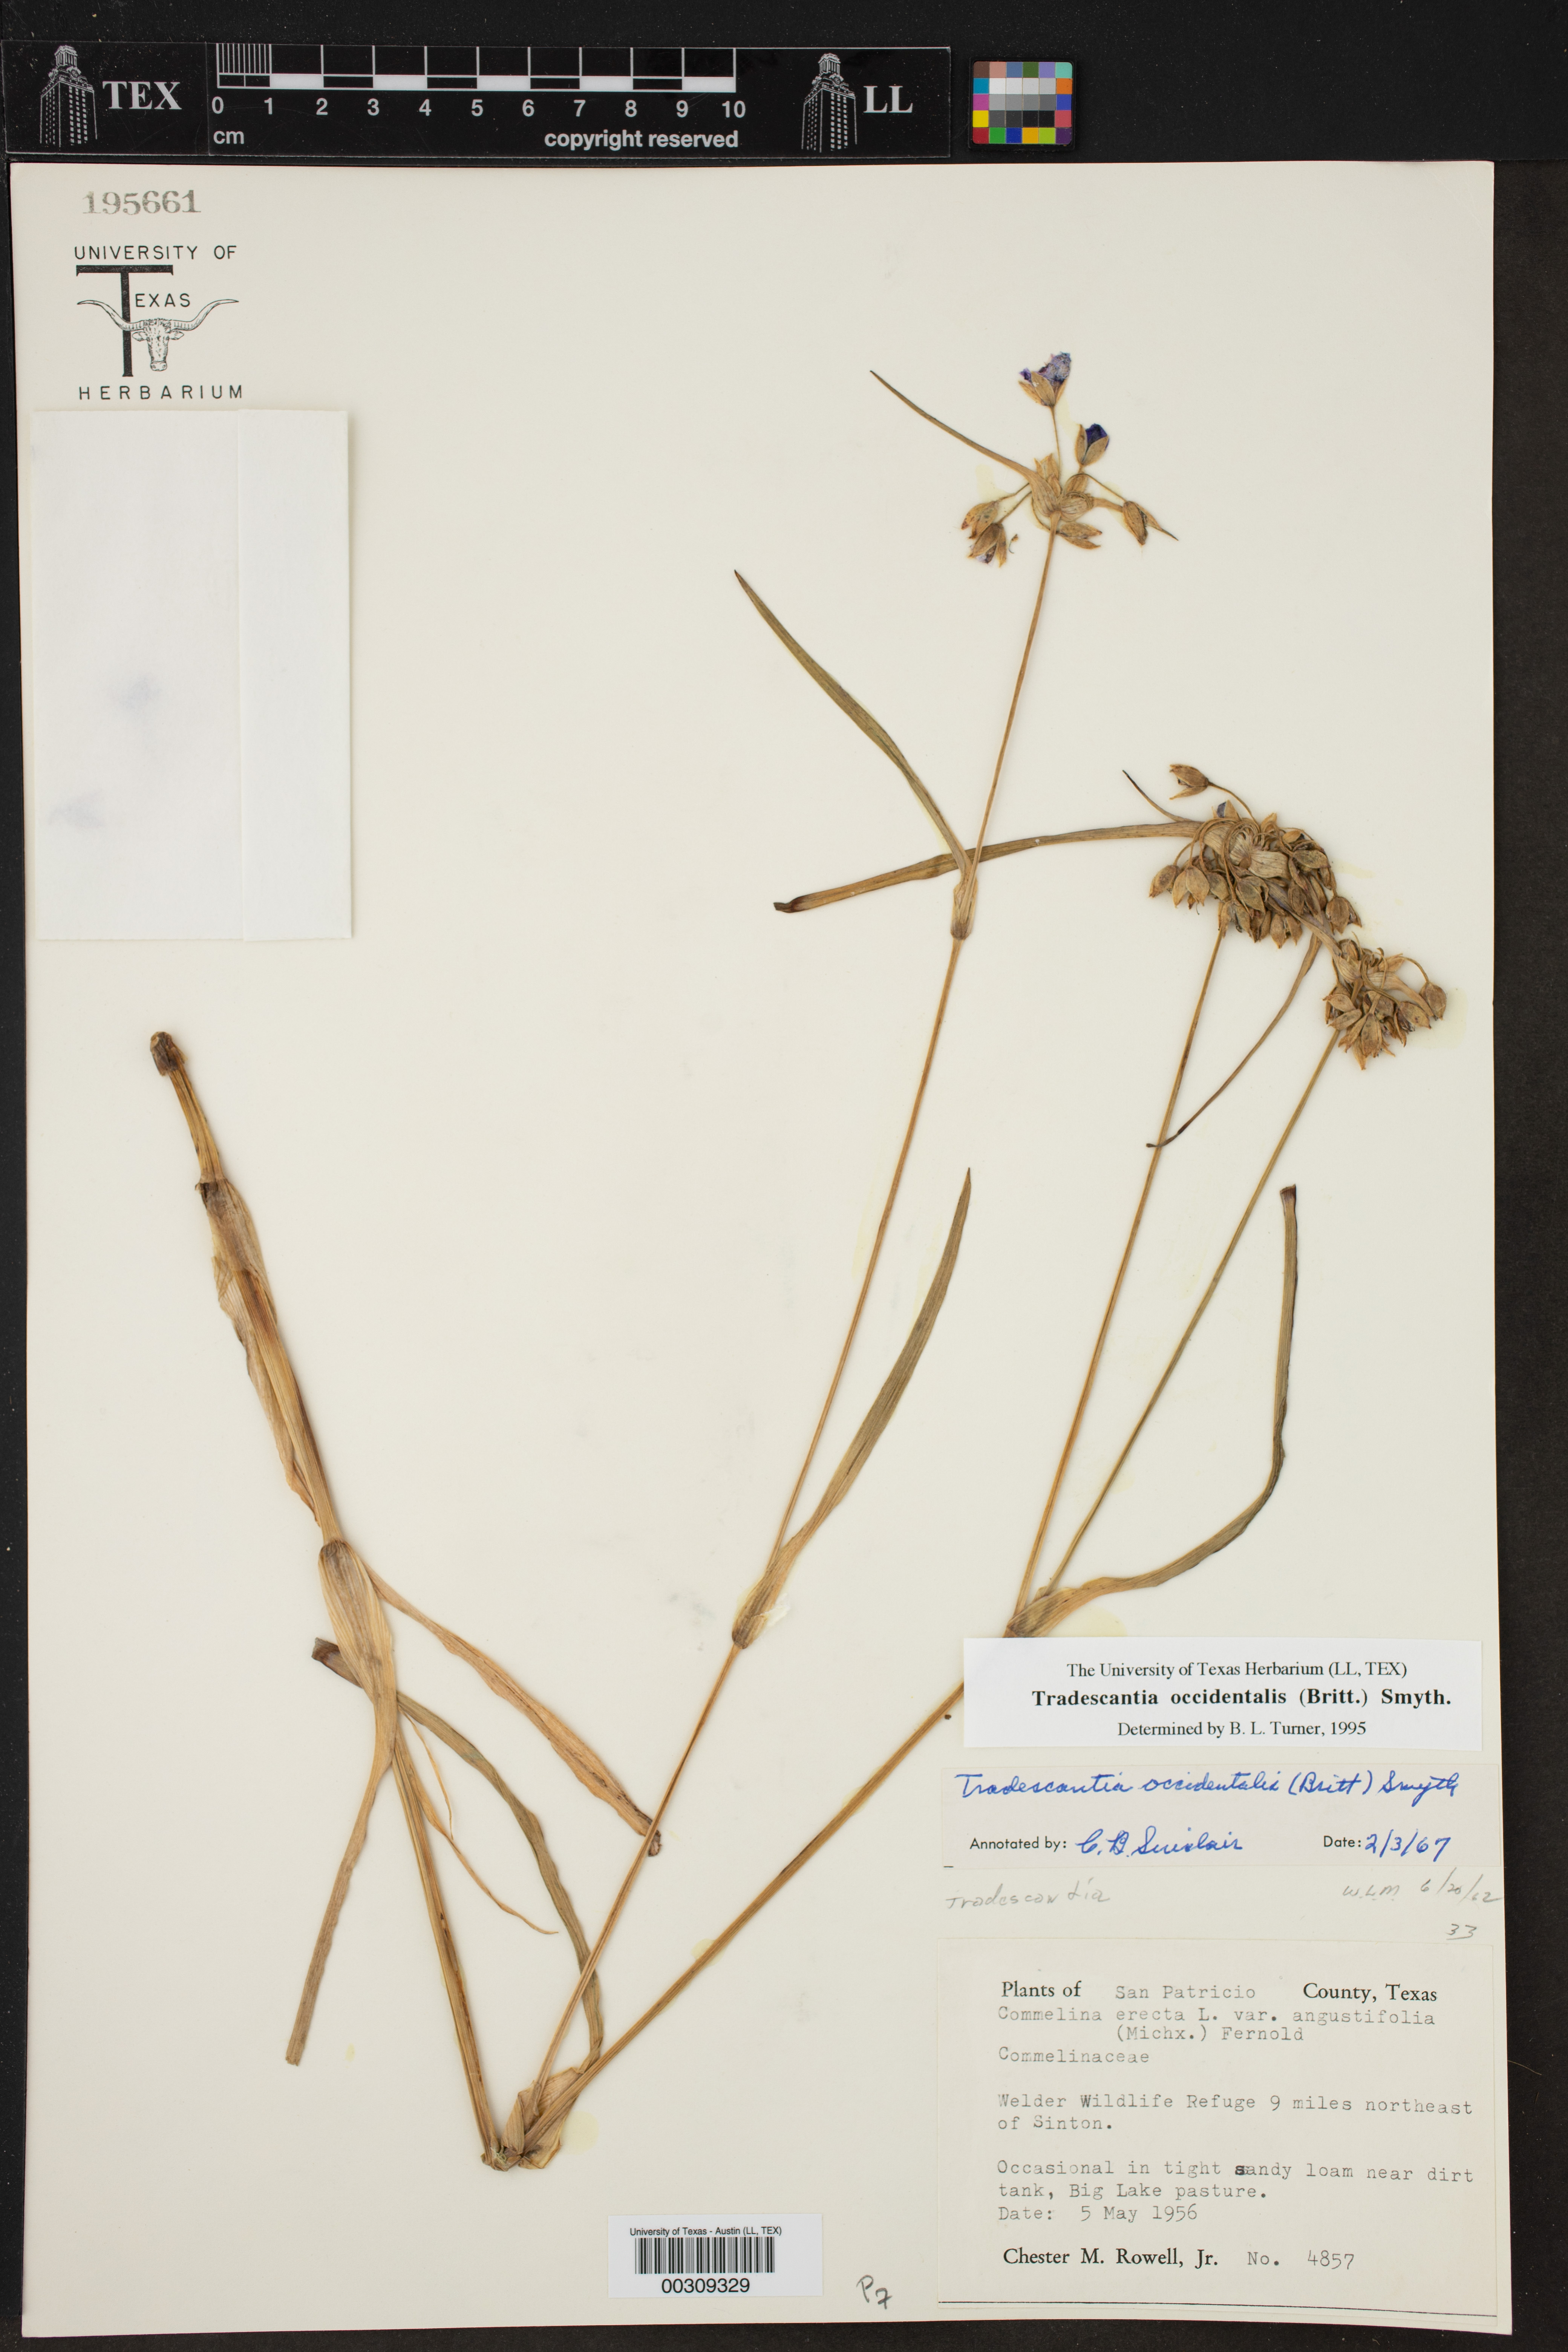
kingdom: Plantae
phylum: Tracheophyta
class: Liliopsida
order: Commelinales
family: Commelinaceae
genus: Tradescantia
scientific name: Tradescantia occidentalis
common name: Prairie spiderwort
